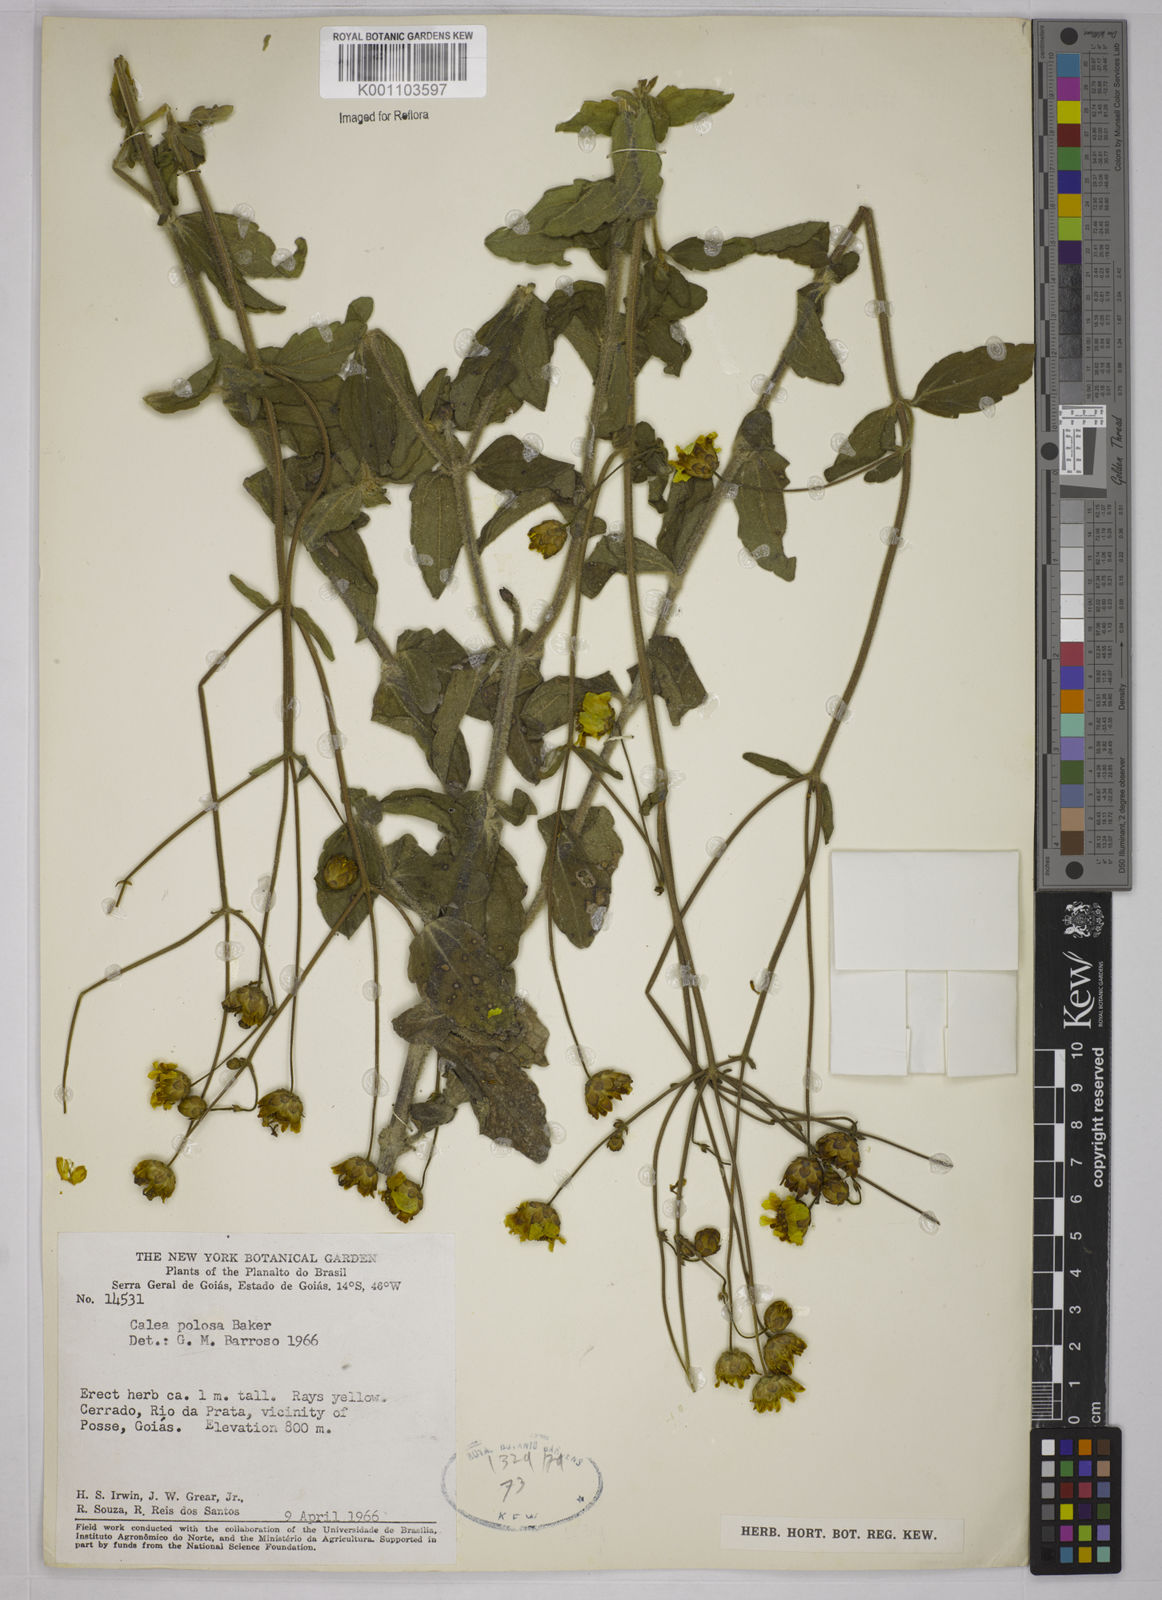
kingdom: Plantae
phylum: Tracheophyta
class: Magnoliopsida
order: Asterales
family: Asteraceae
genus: Calea
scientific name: Calea pilosa
